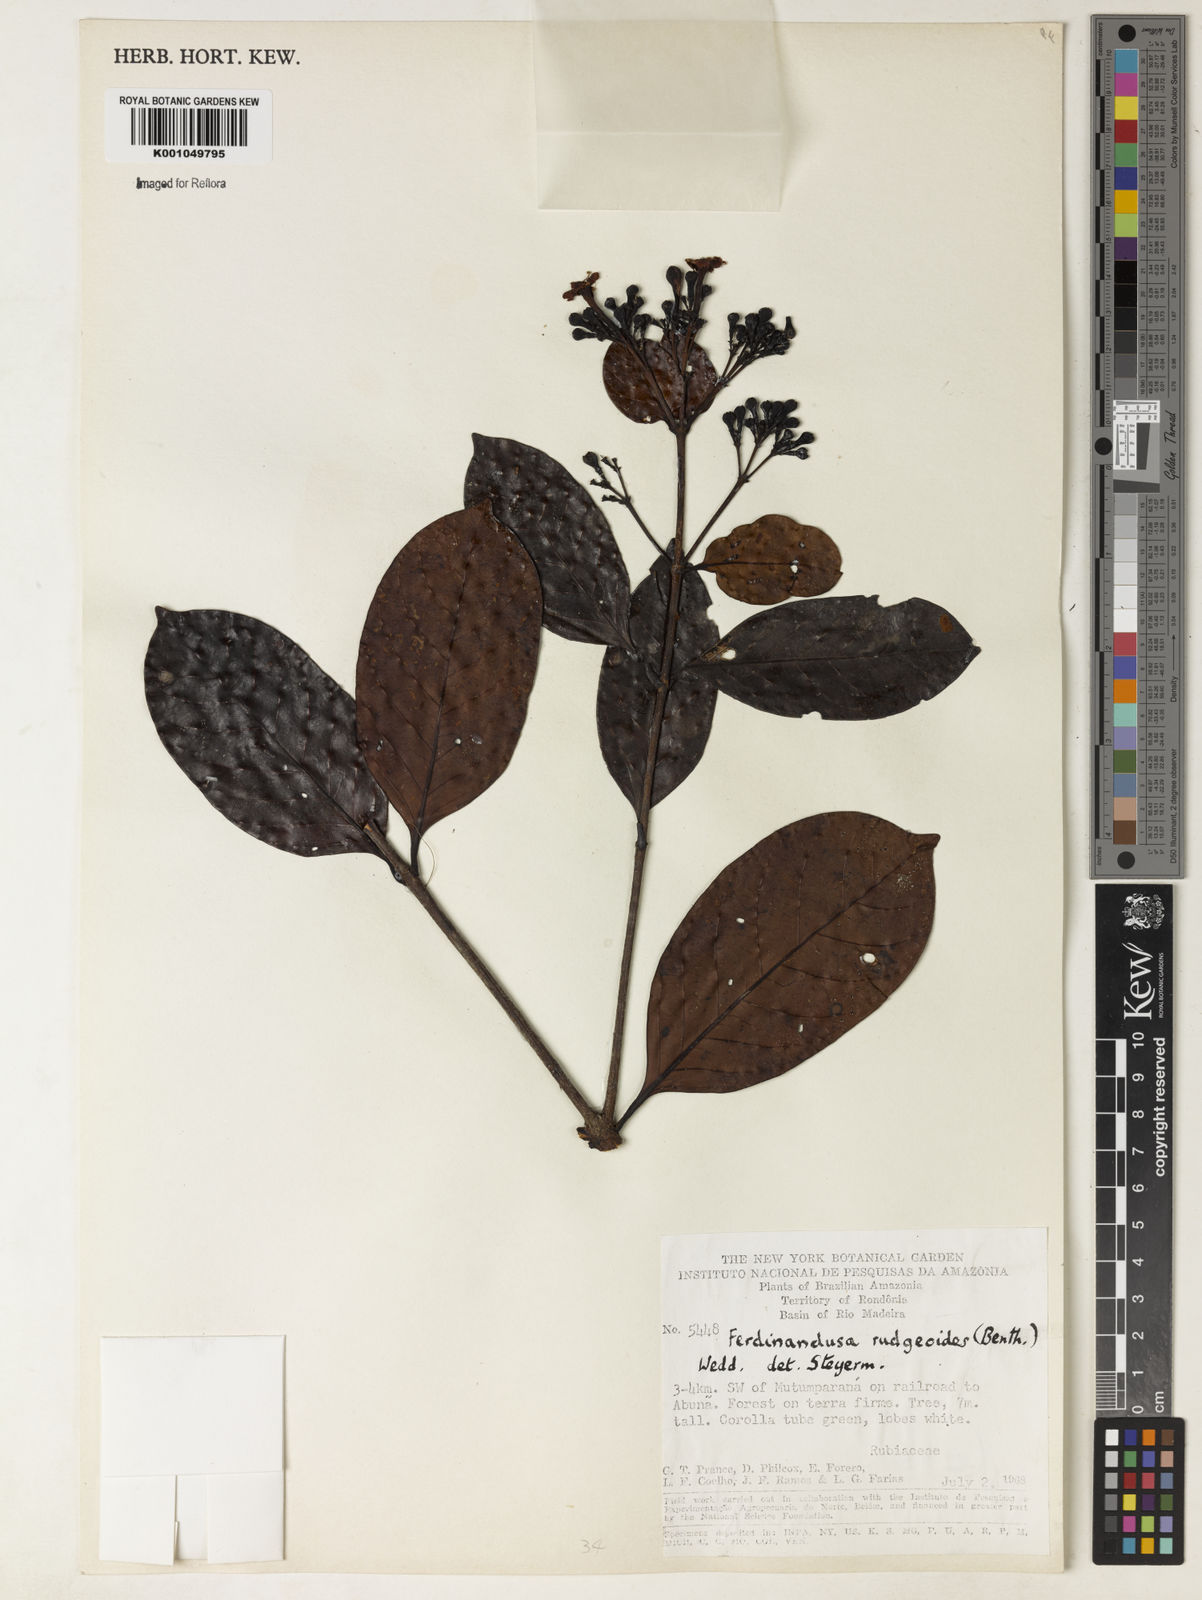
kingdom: Plantae
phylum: Tracheophyta
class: Magnoliopsida
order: Gentianales
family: Rubiaceae
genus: Ferdinandusa
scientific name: Ferdinandusa rudgeoides
